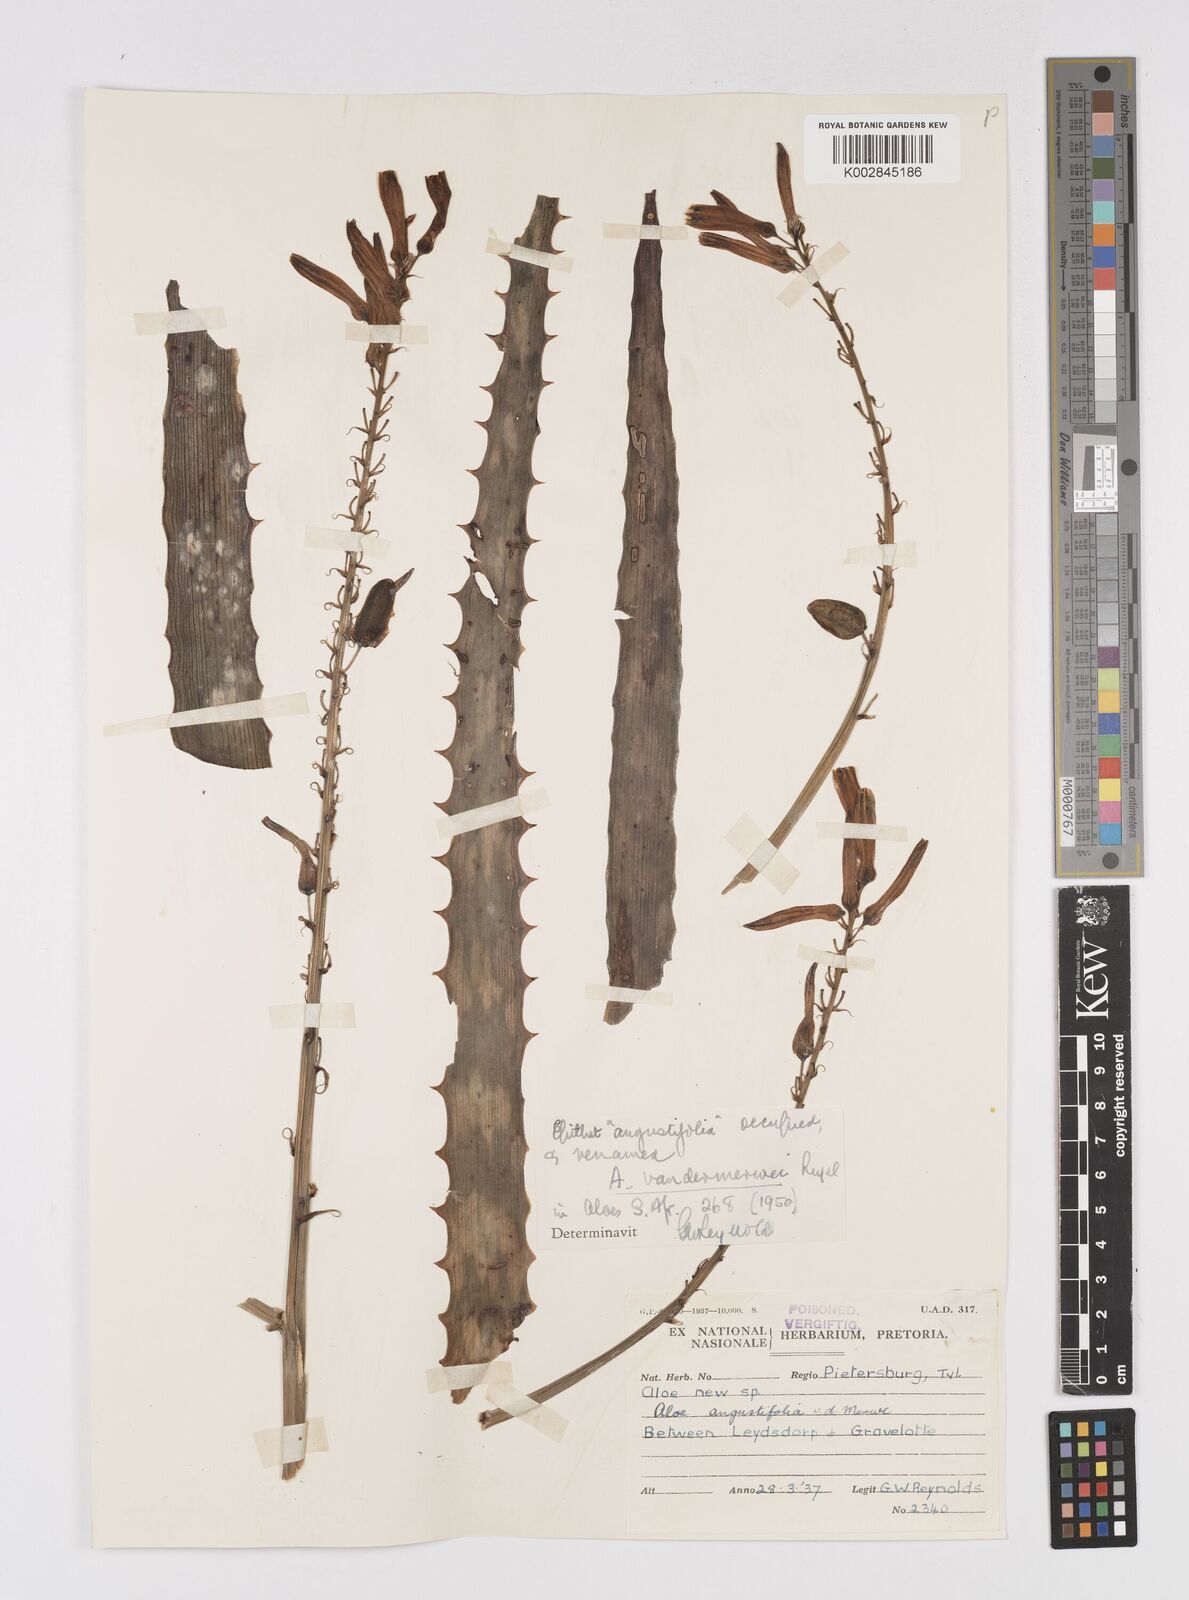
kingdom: Plantae
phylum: Tracheophyta
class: Liliopsida
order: Asparagales
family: Asphodelaceae
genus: Aloe
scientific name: Aloe vandermerwei
